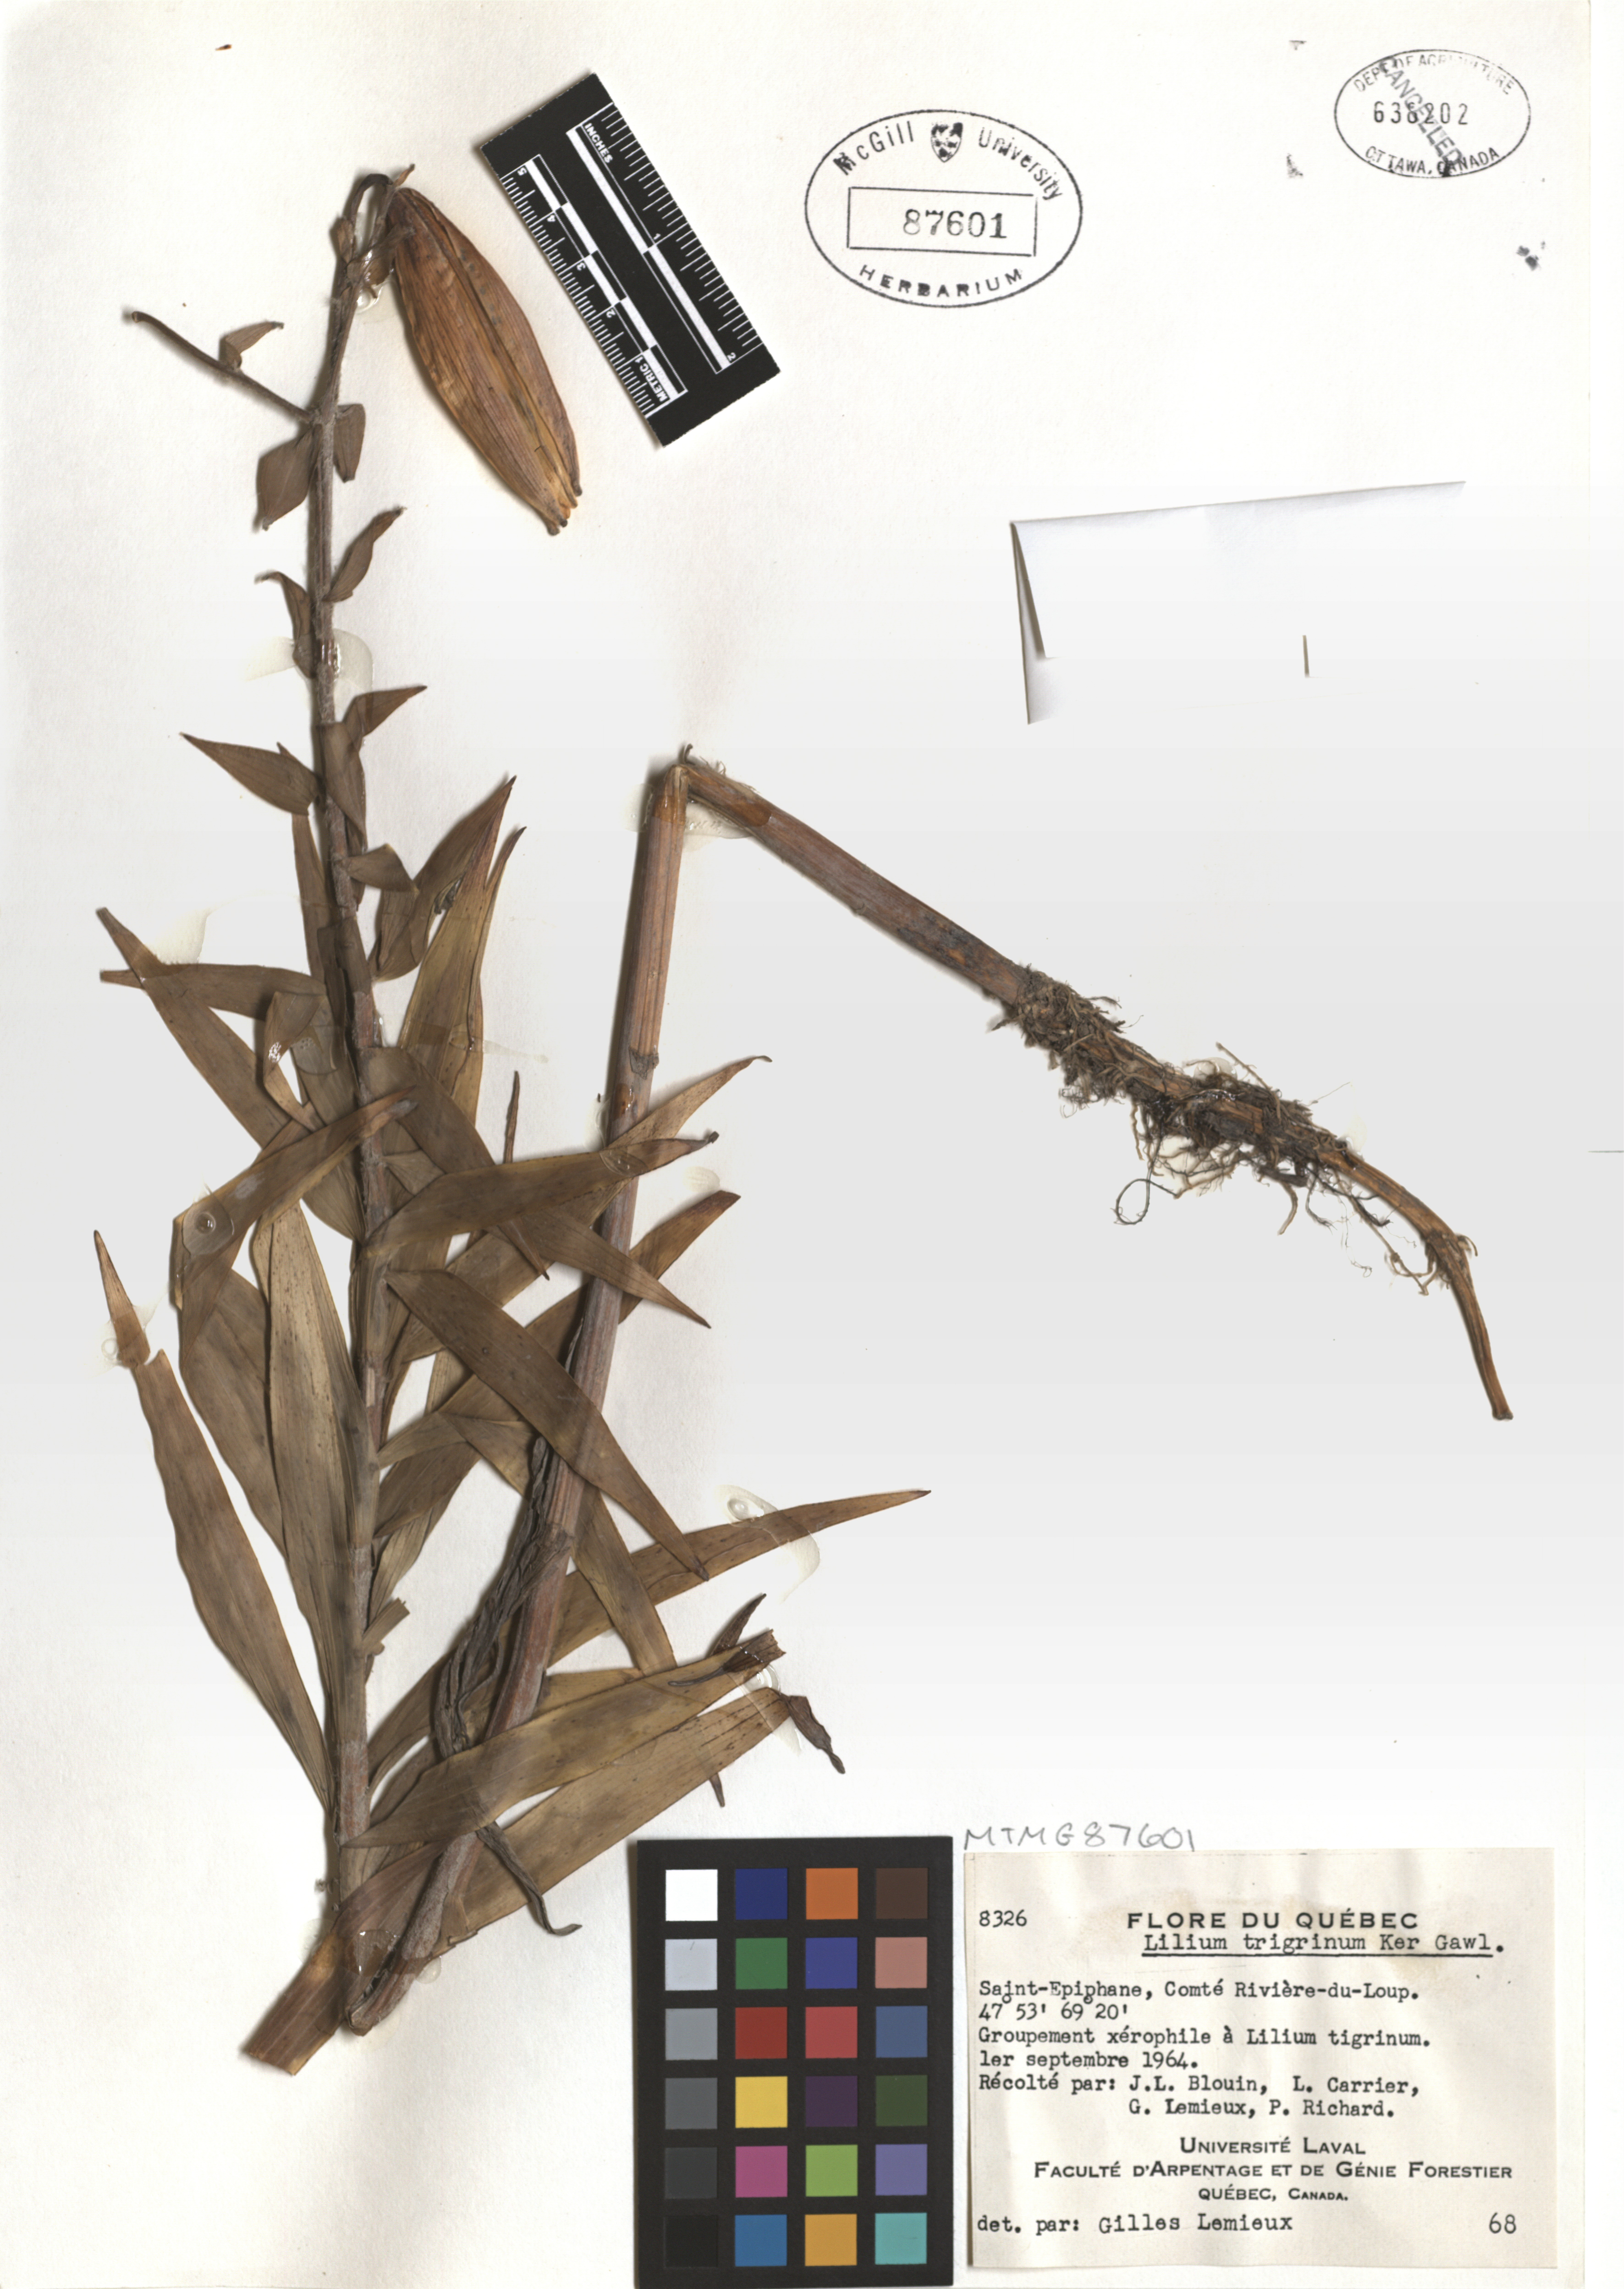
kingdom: Plantae
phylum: Tracheophyta
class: Liliopsida
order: Liliales
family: Liliaceae
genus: Lilium
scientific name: Lilium lancifolium
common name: Tiger lily
